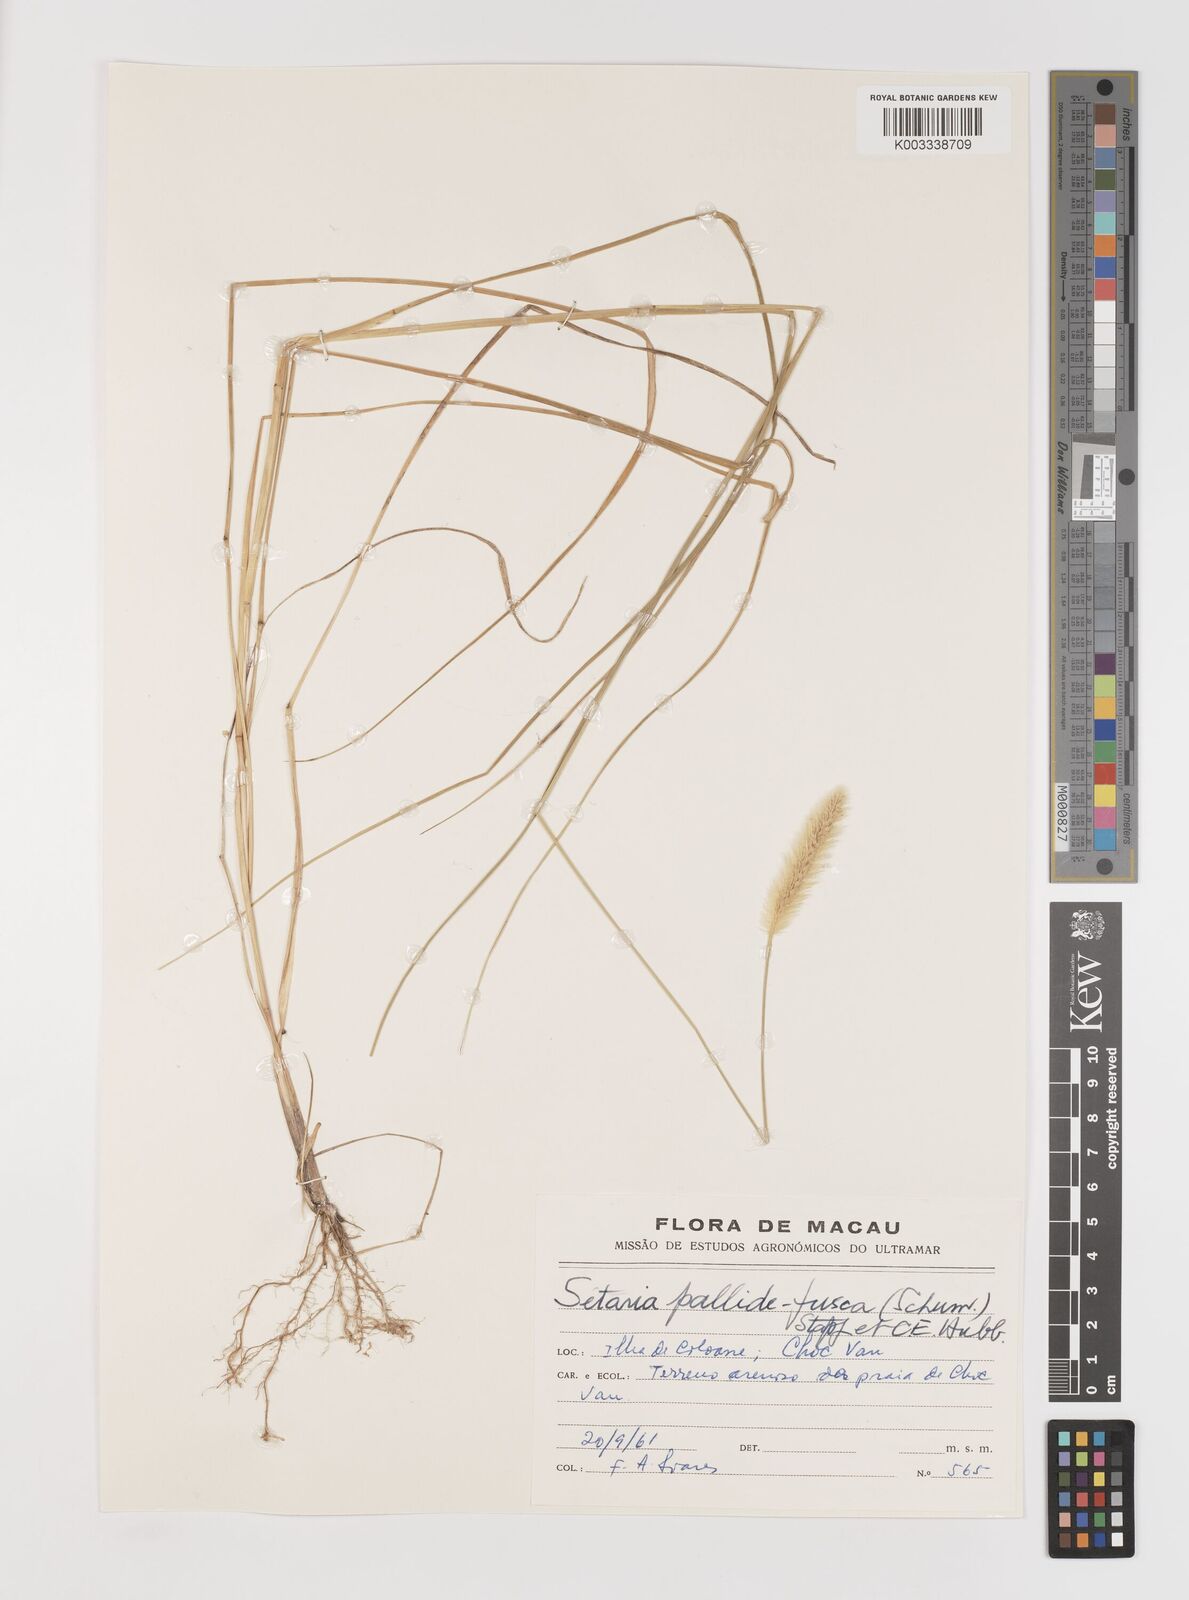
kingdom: Plantae
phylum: Tracheophyta
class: Liliopsida
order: Poales
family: Poaceae
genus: Setaria
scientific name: Setaria parviflora
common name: Knotroot bristle-grass
